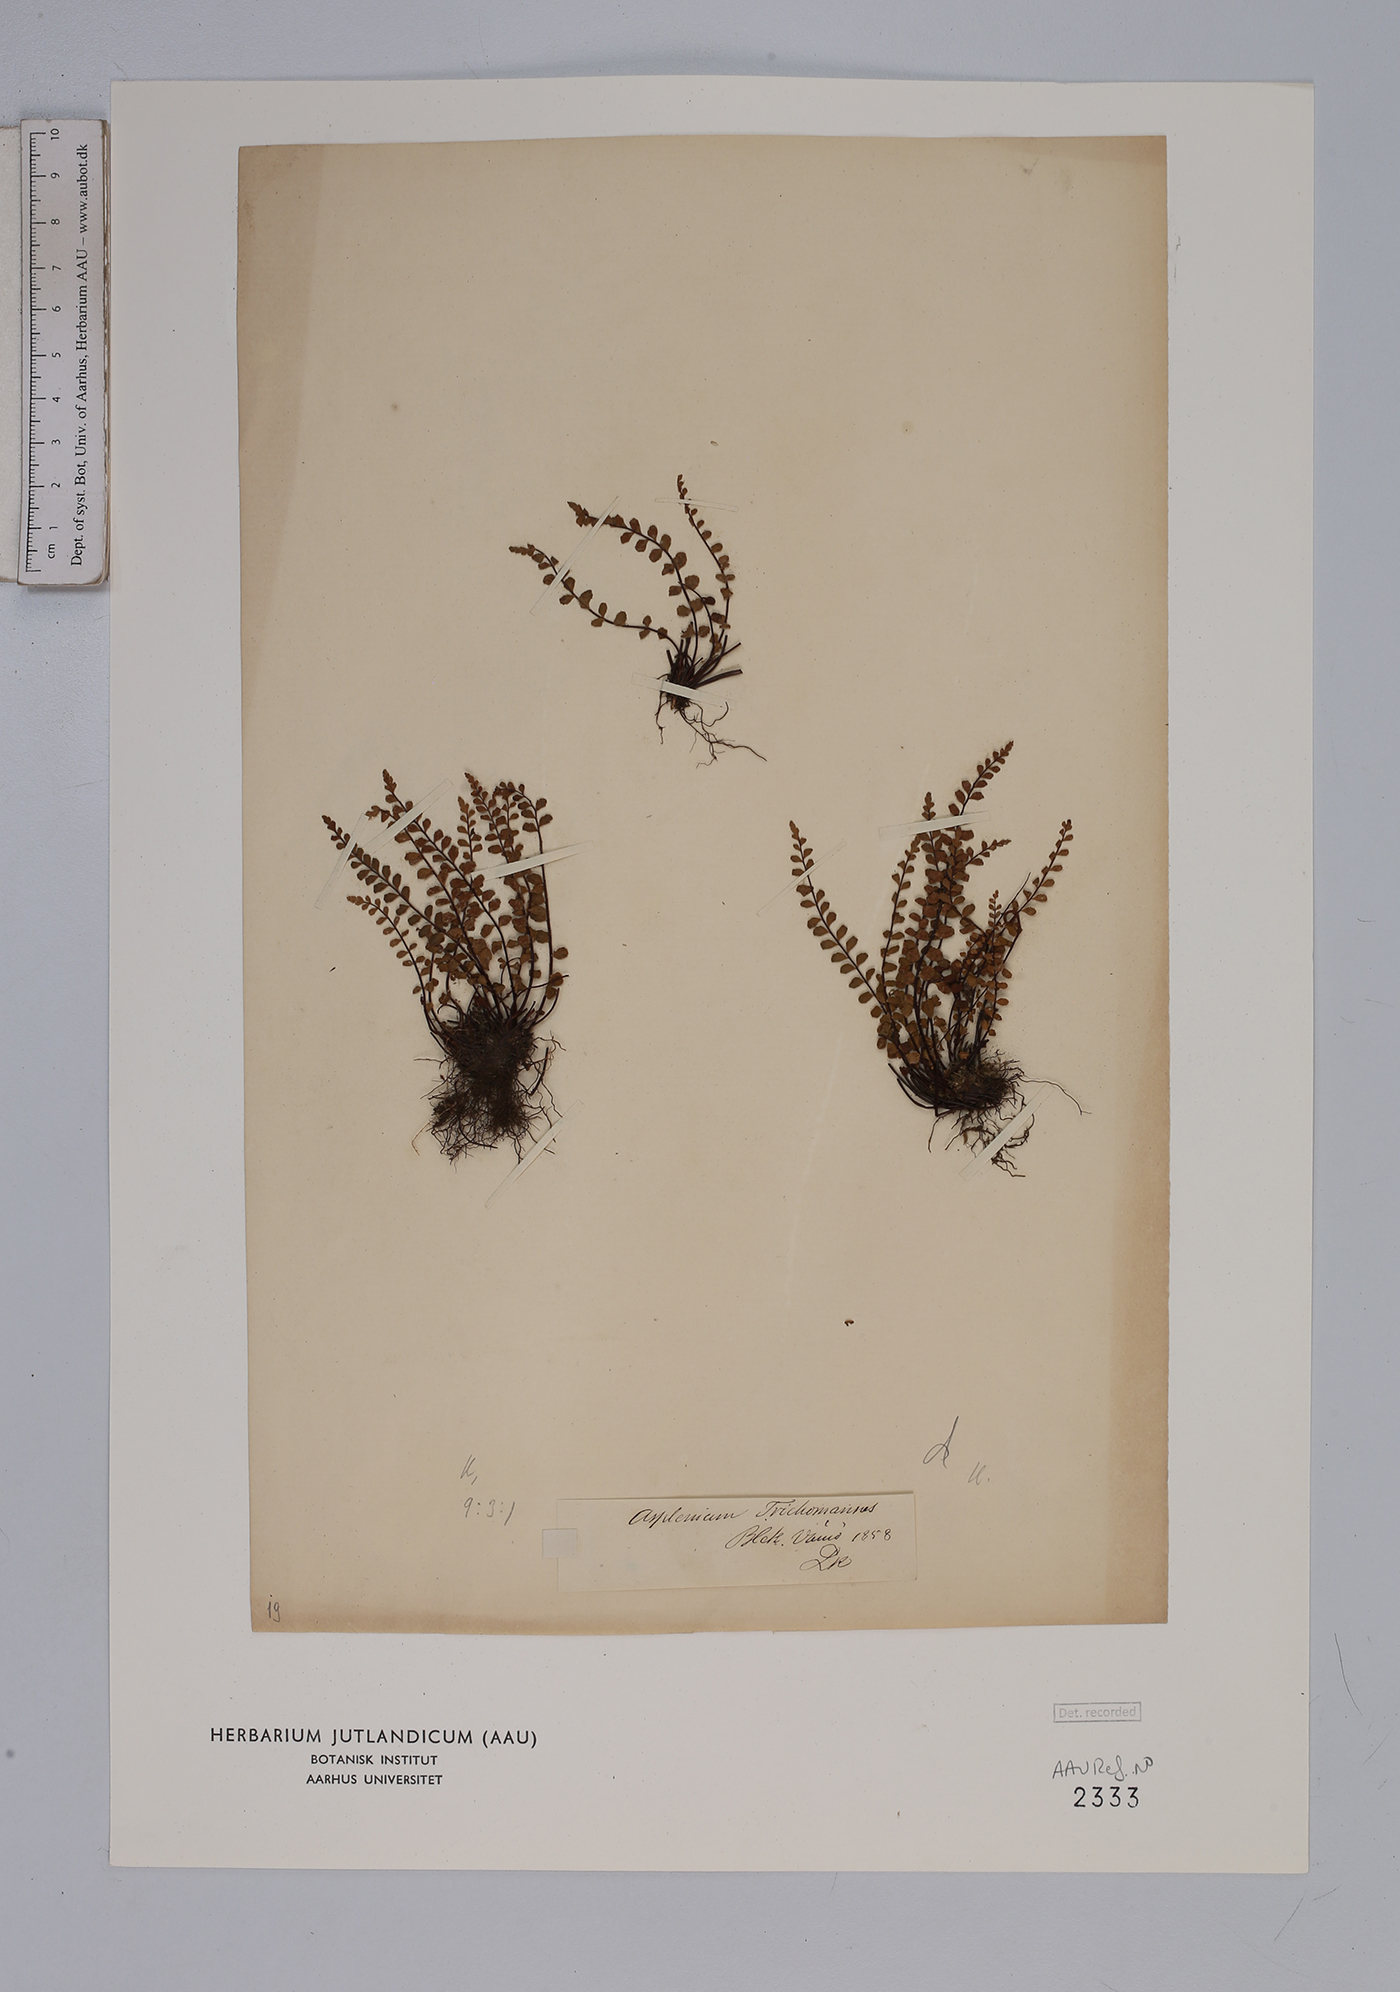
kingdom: Plantae
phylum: Tracheophyta
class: Polypodiopsida
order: Polypodiales
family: Aspleniaceae
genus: Asplenium
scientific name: Asplenium trichomanes
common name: Maidenhair spleenwort
